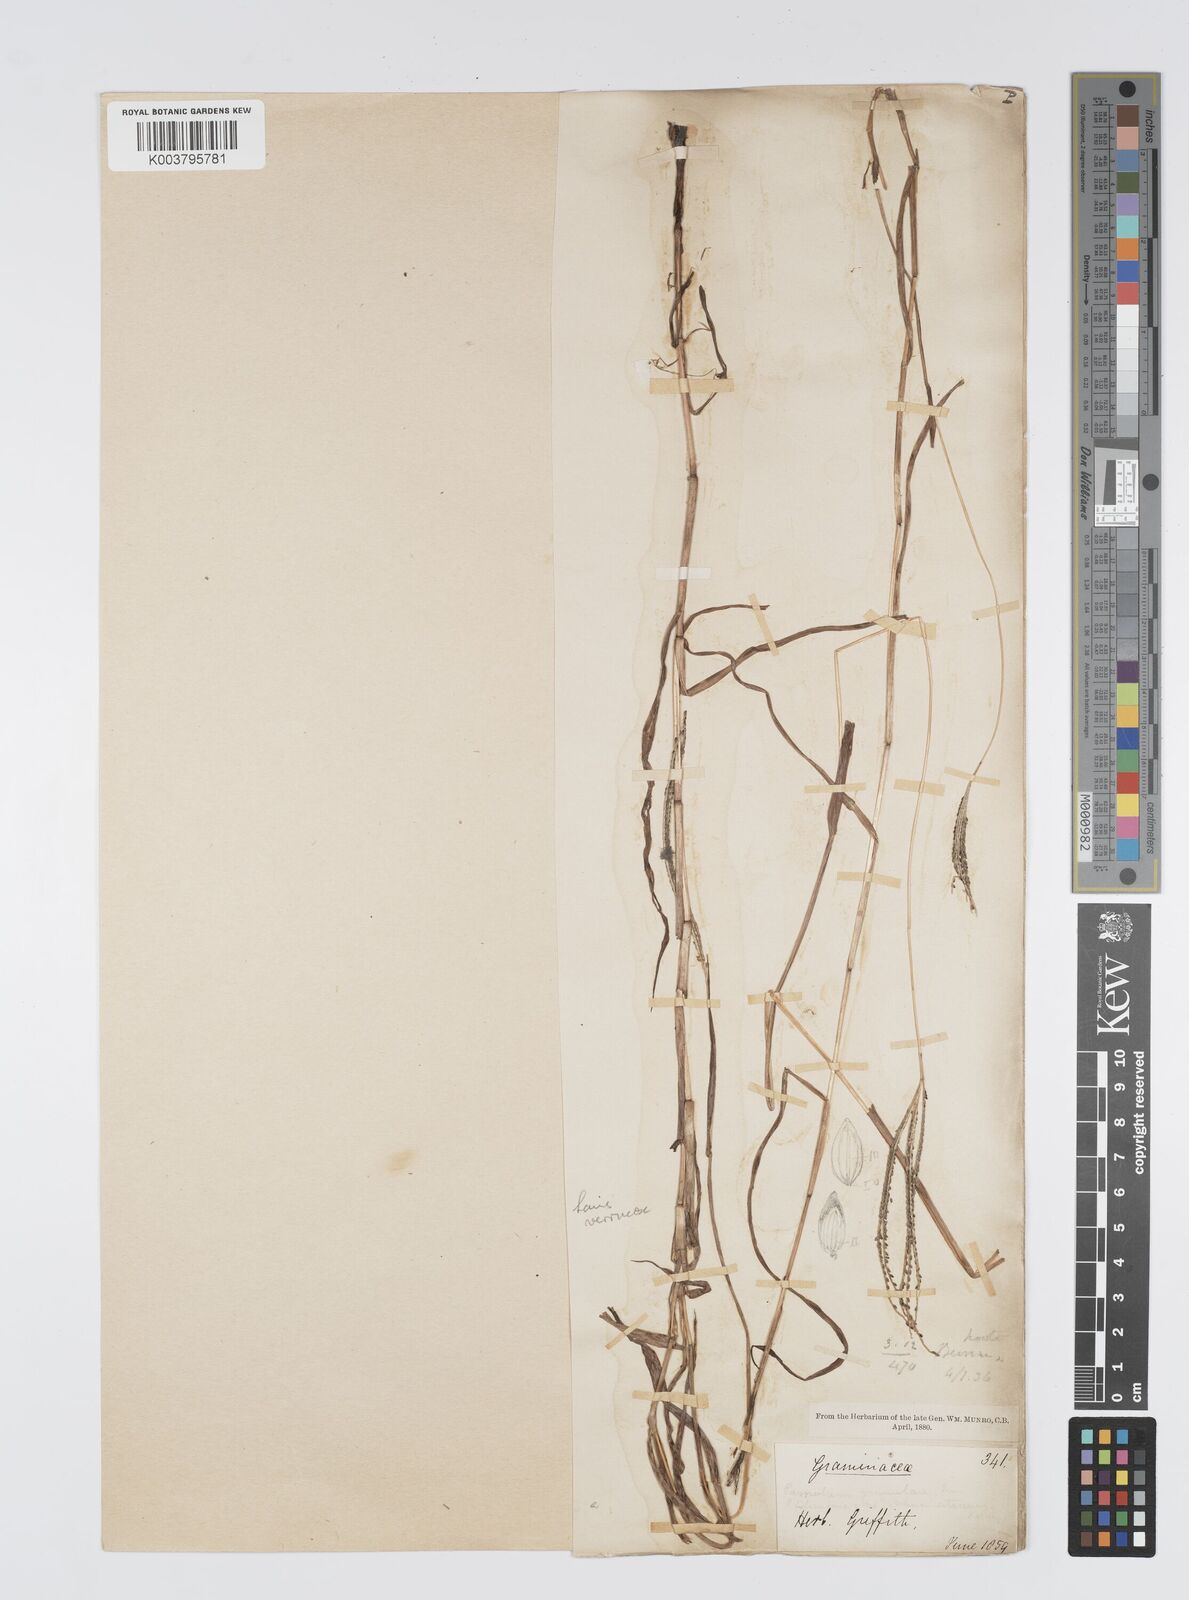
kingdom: Plantae
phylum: Tracheophyta
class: Liliopsida
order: Poales
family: Poaceae
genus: Digitaria
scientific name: Digitaria violascens
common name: Violet crabgrass
